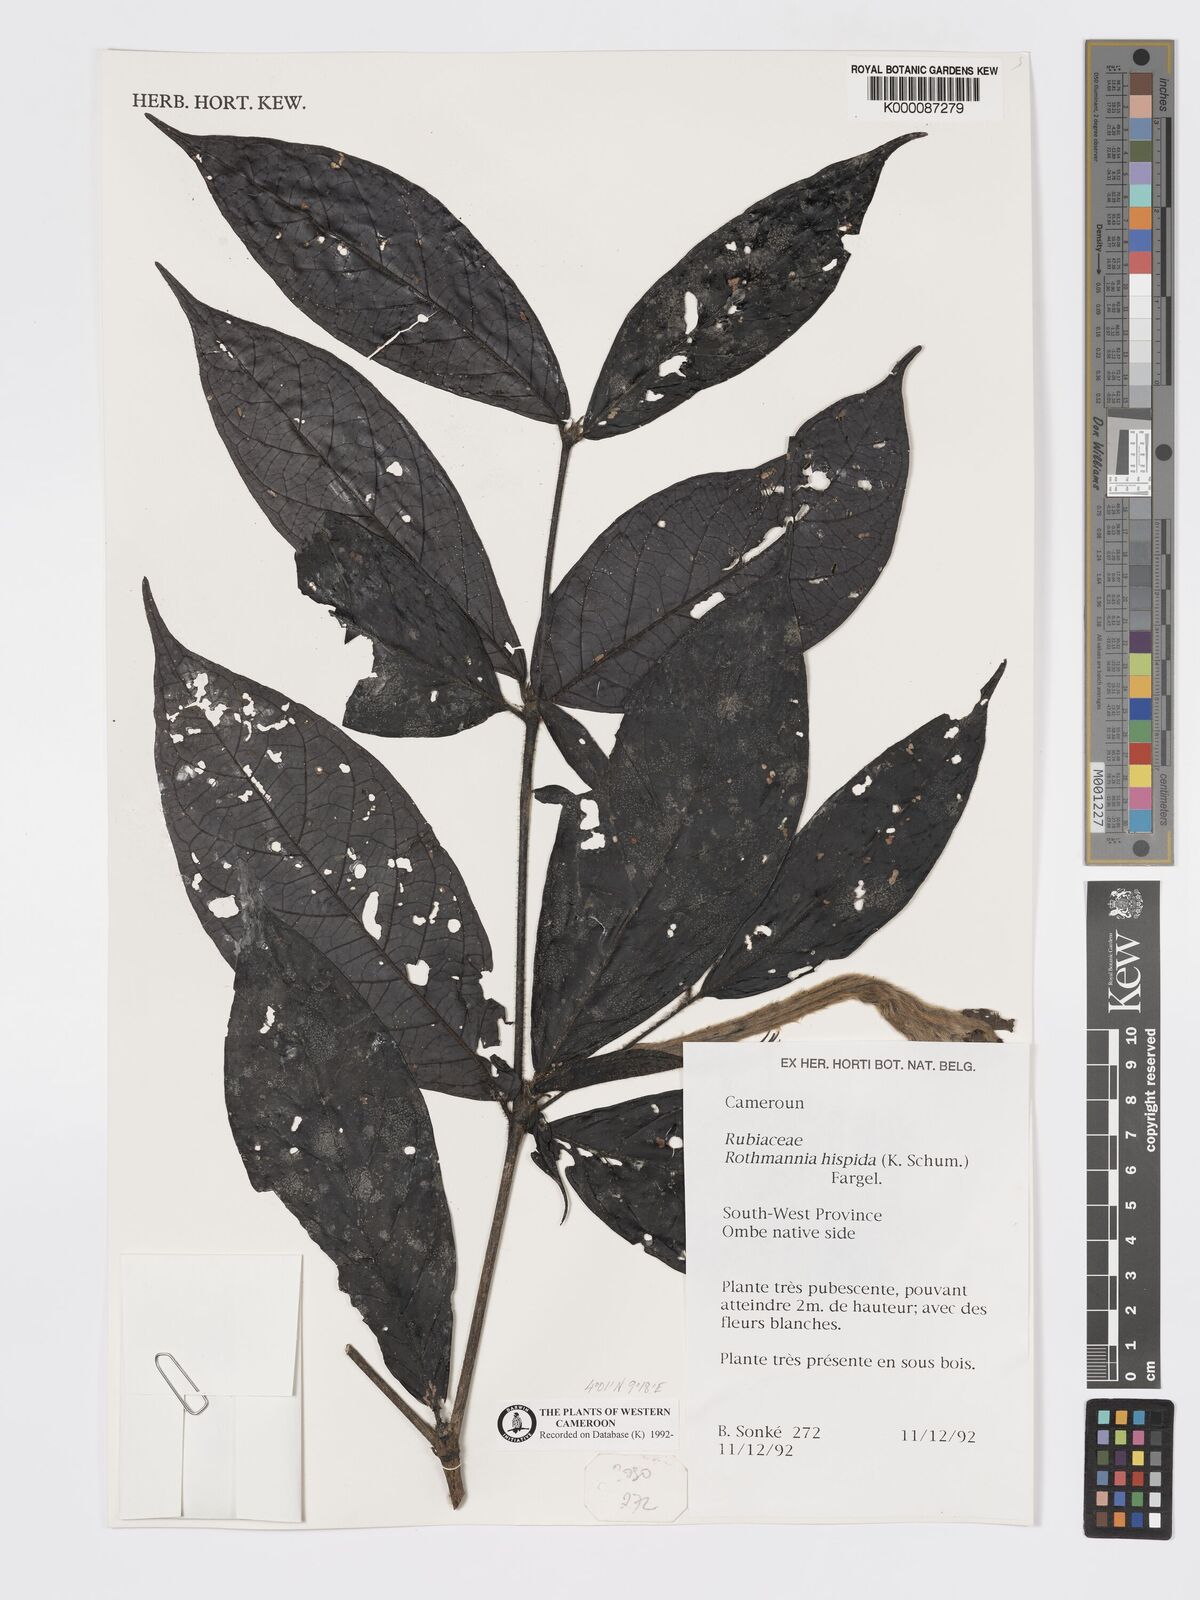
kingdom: Plantae
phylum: Tracheophyta
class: Magnoliopsida
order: Gentianales
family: Rubiaceae
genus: Rothmannia
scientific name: Rothmannia hispida
